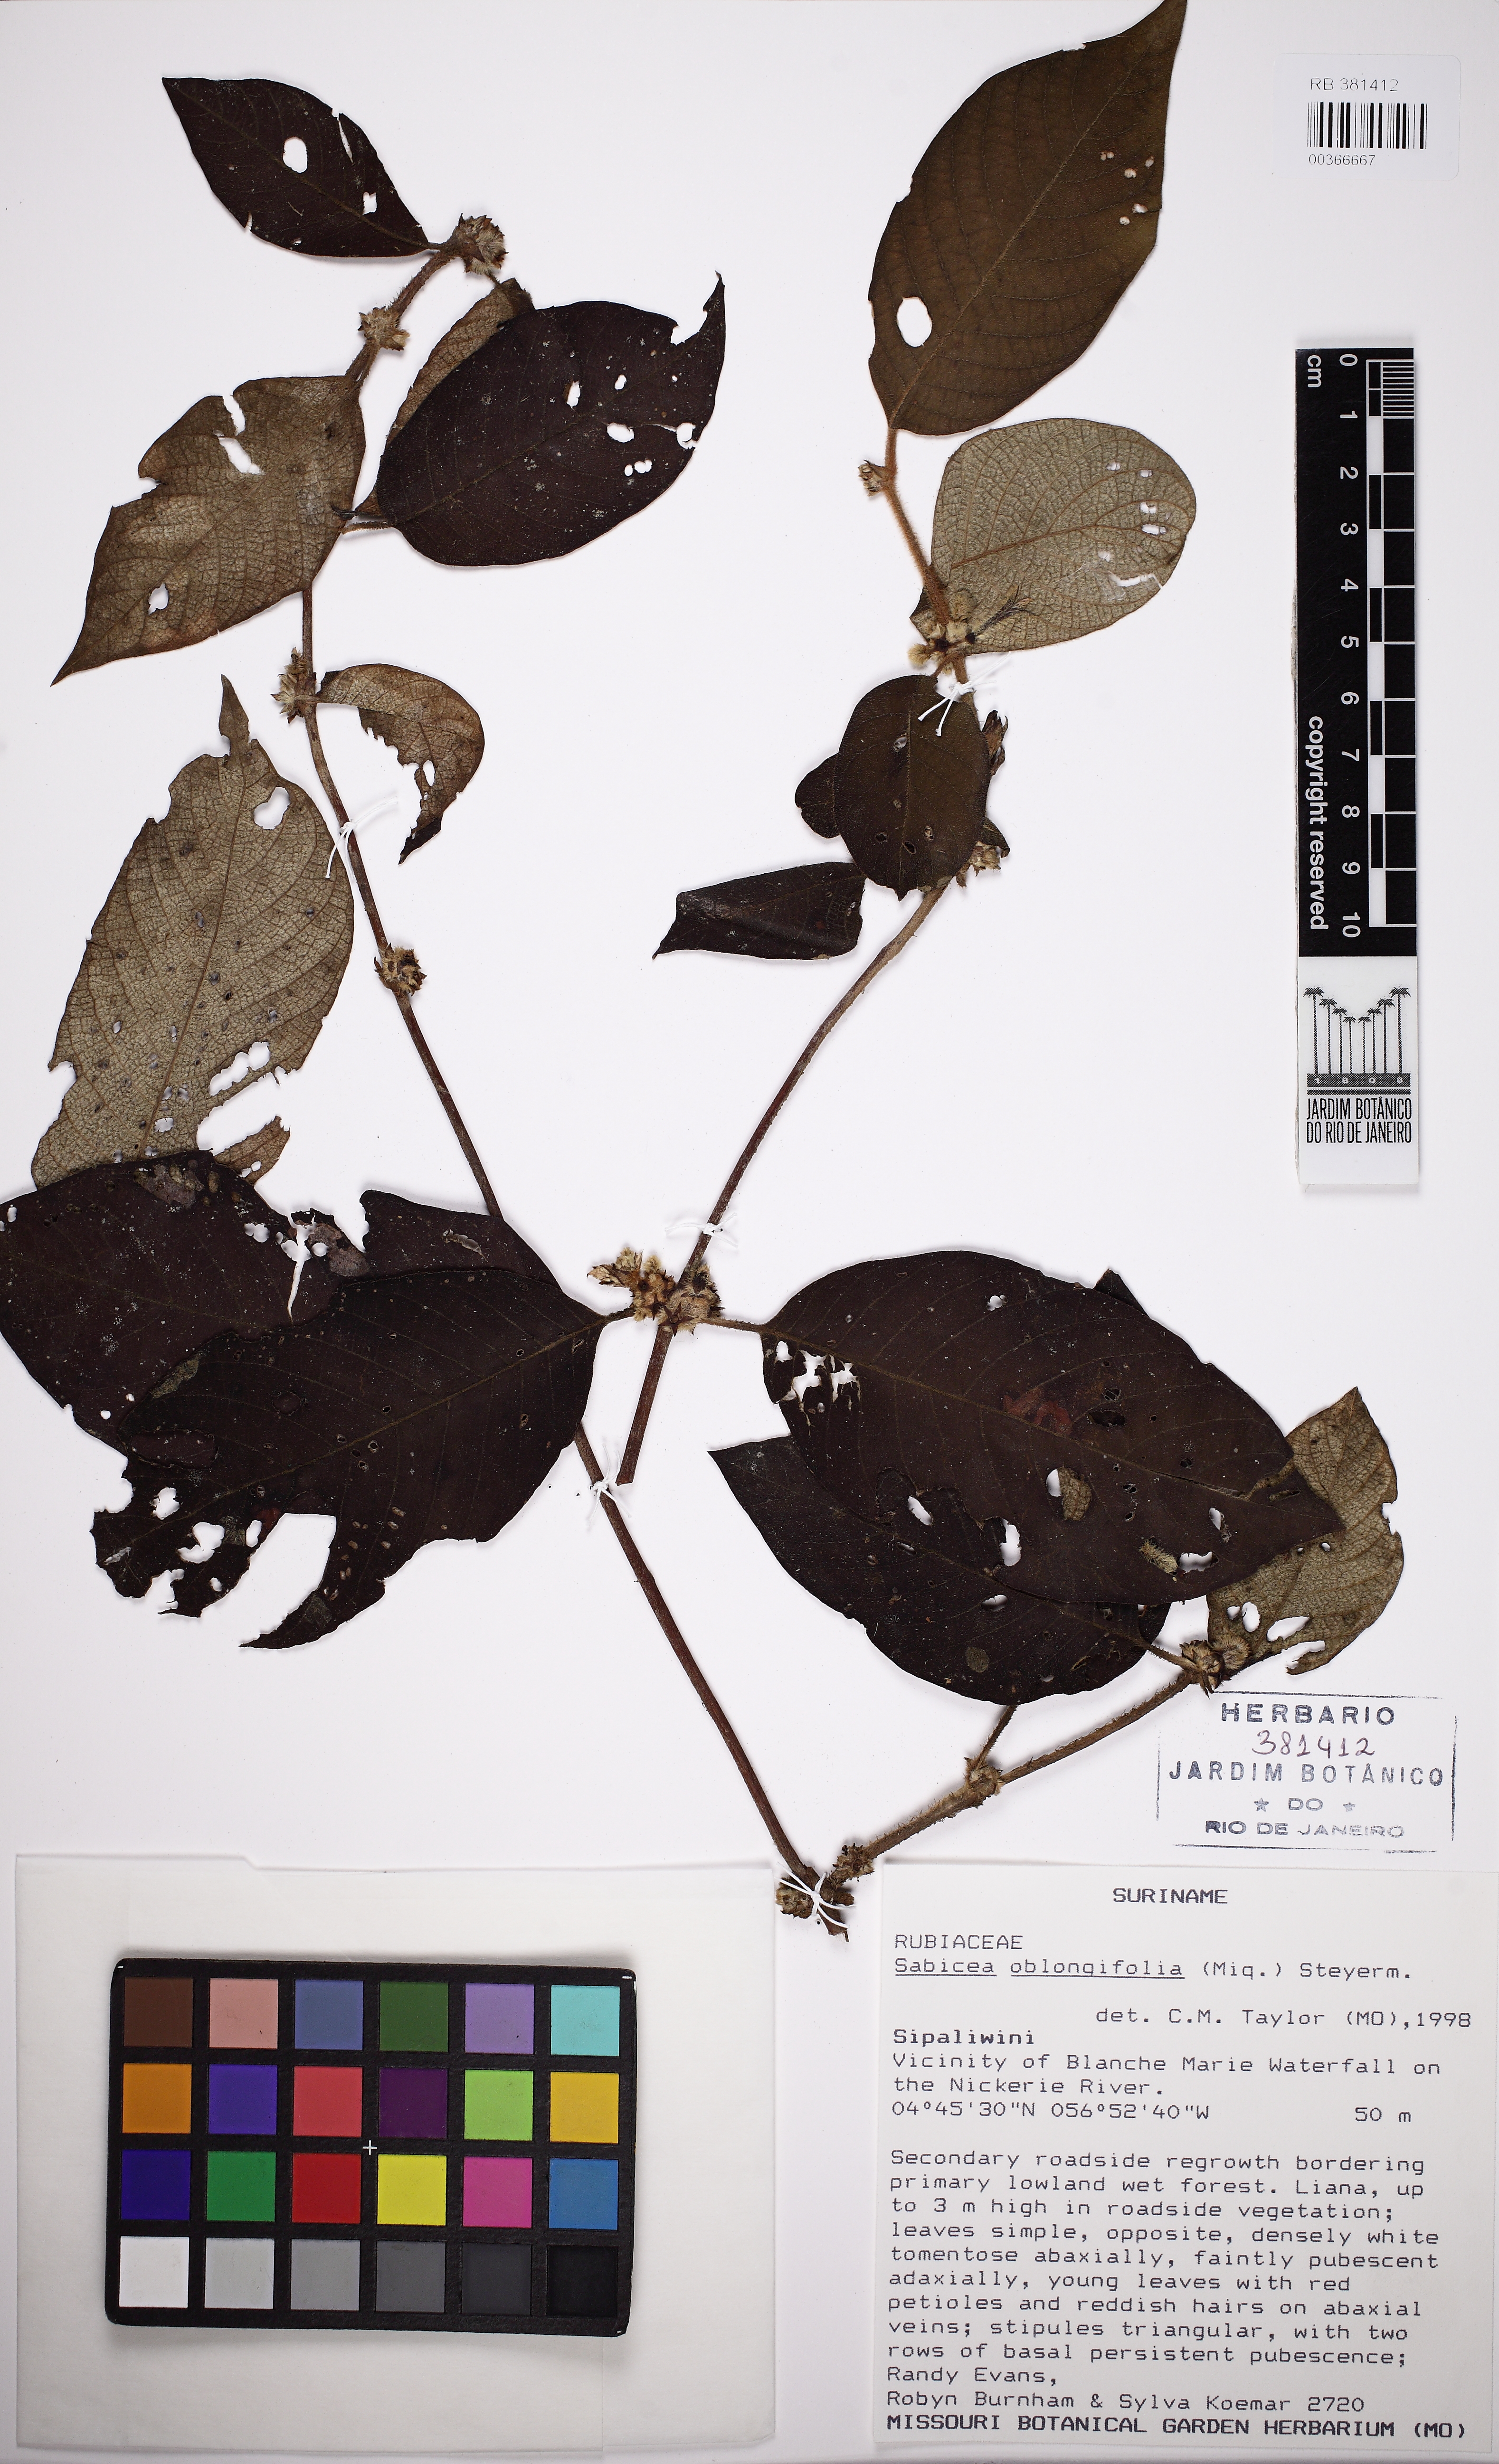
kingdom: Plantae
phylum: Tracheophyta
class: Magnoliopsida
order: Gentianales
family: Rubiaceae
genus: Sabicea
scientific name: Sabicea oblongifolia
